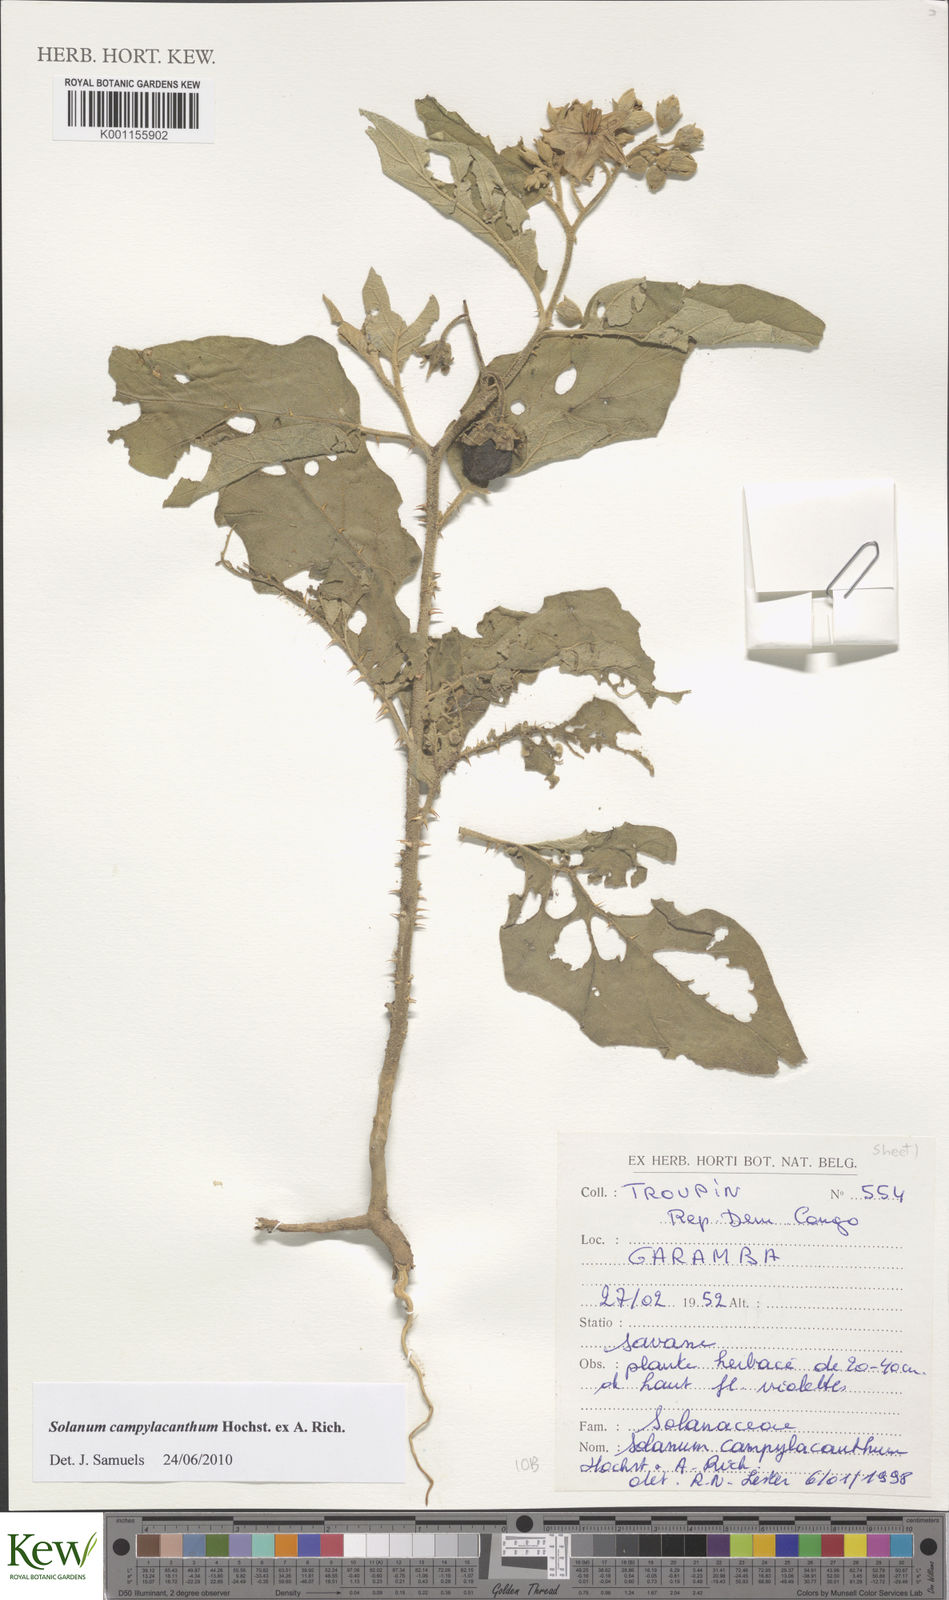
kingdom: Plantae
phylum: Tracheophyta
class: Magnoliopsida
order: Solanales
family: Solanaceae
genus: Solanum
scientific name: Solanum campylacanthum
